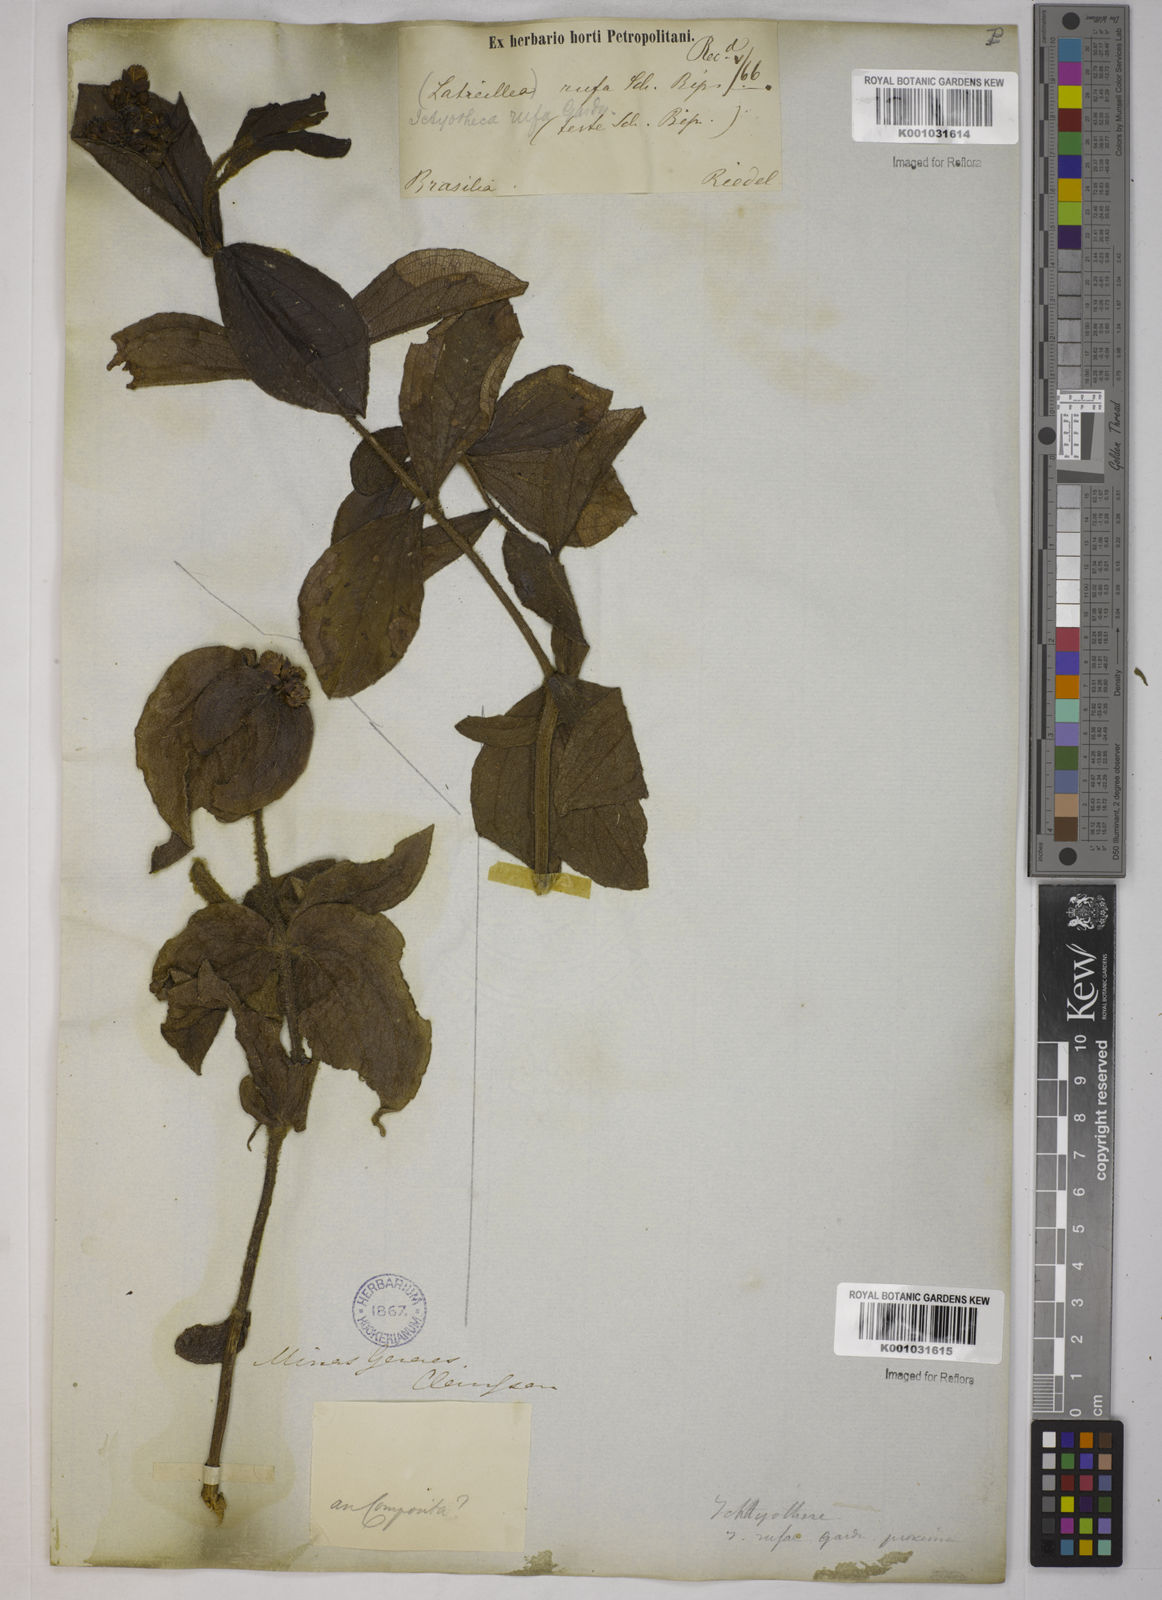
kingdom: Plantae
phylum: Tracheophyta
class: Magnoliopsida
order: Asterales
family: Asteraceae
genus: Ichthyothere
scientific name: Ichthyothere rufa
